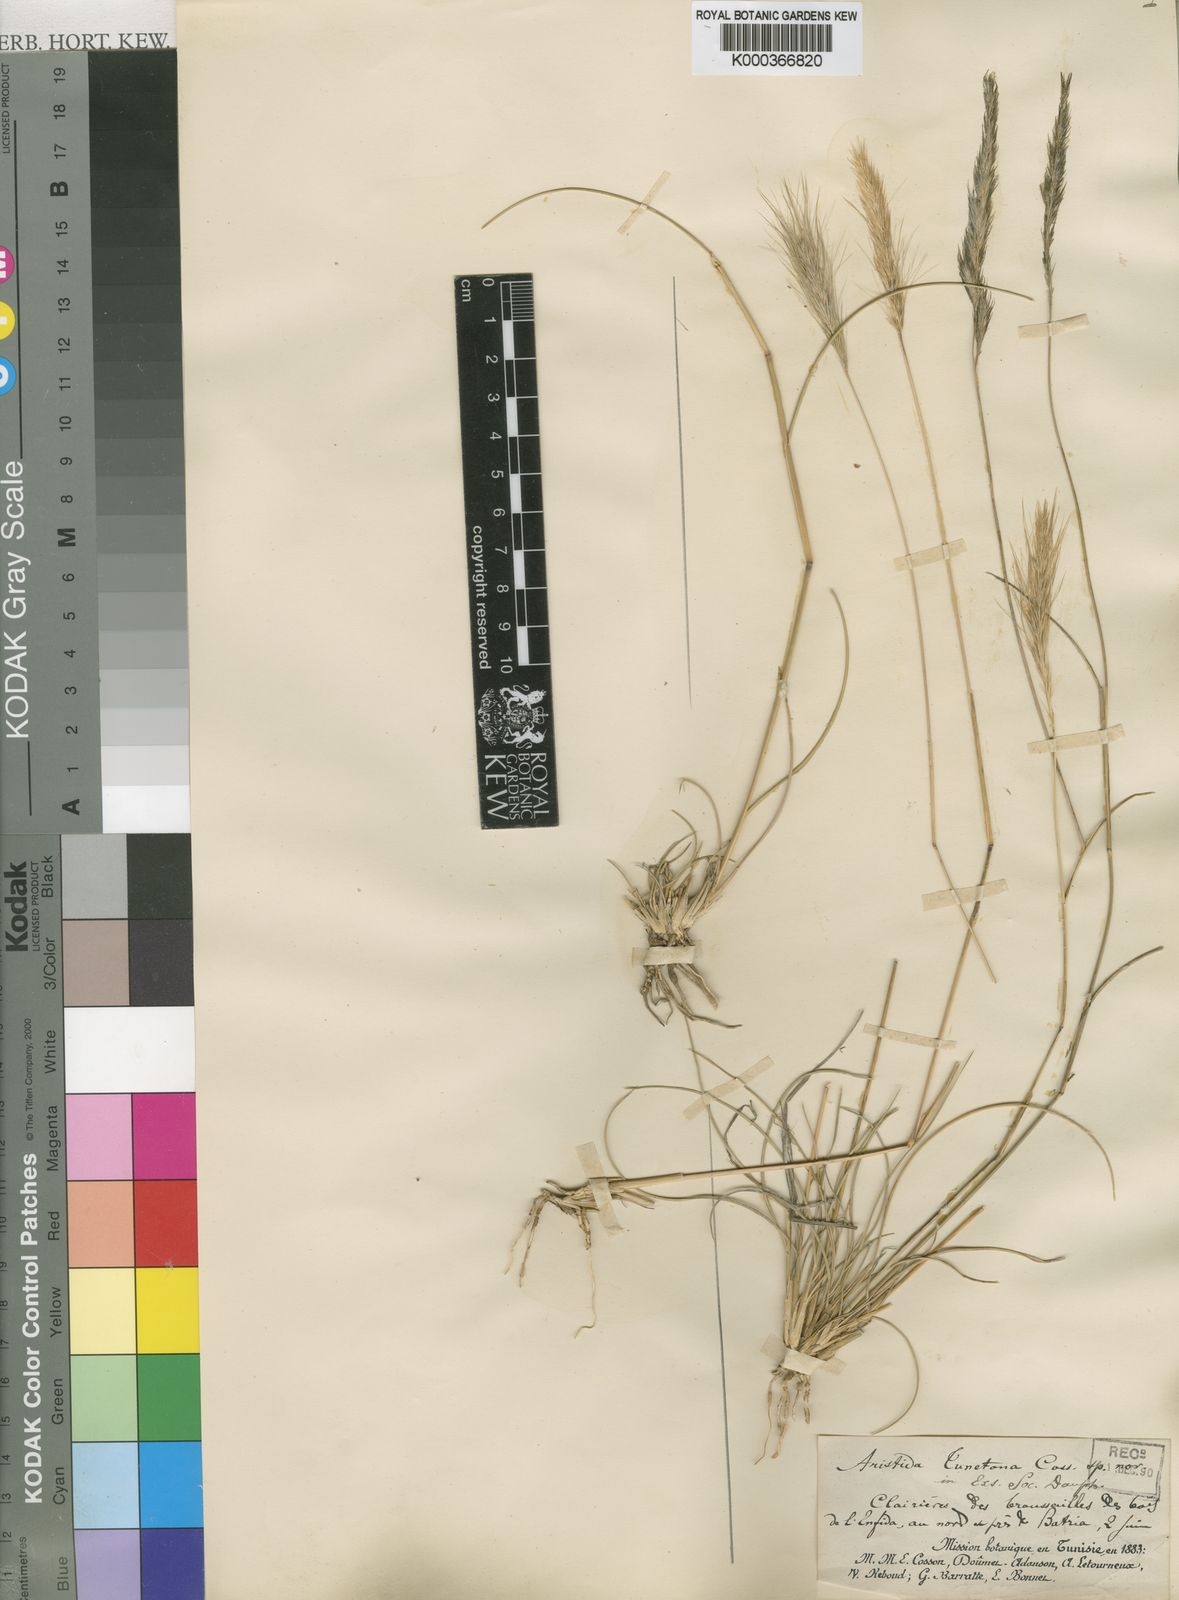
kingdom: Plantae
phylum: Tracheophyta
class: Liliopsida
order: Poales
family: Poaceae
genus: Aristida
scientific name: Aristida congesta
